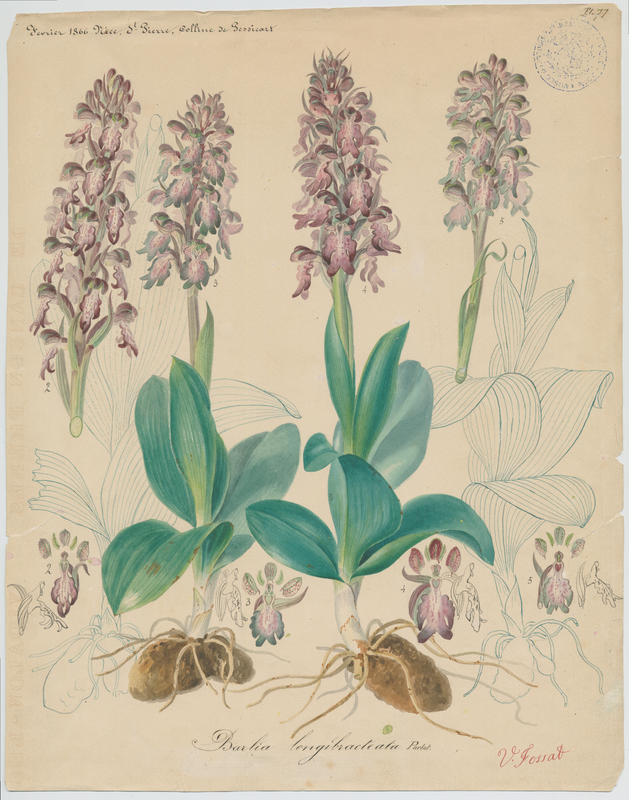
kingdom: Plantae
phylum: Tracheophyta
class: Liliopsida
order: Asparagales
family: Orchidaceae
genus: Himantoglossum
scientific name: Himantoglossum robertianum
